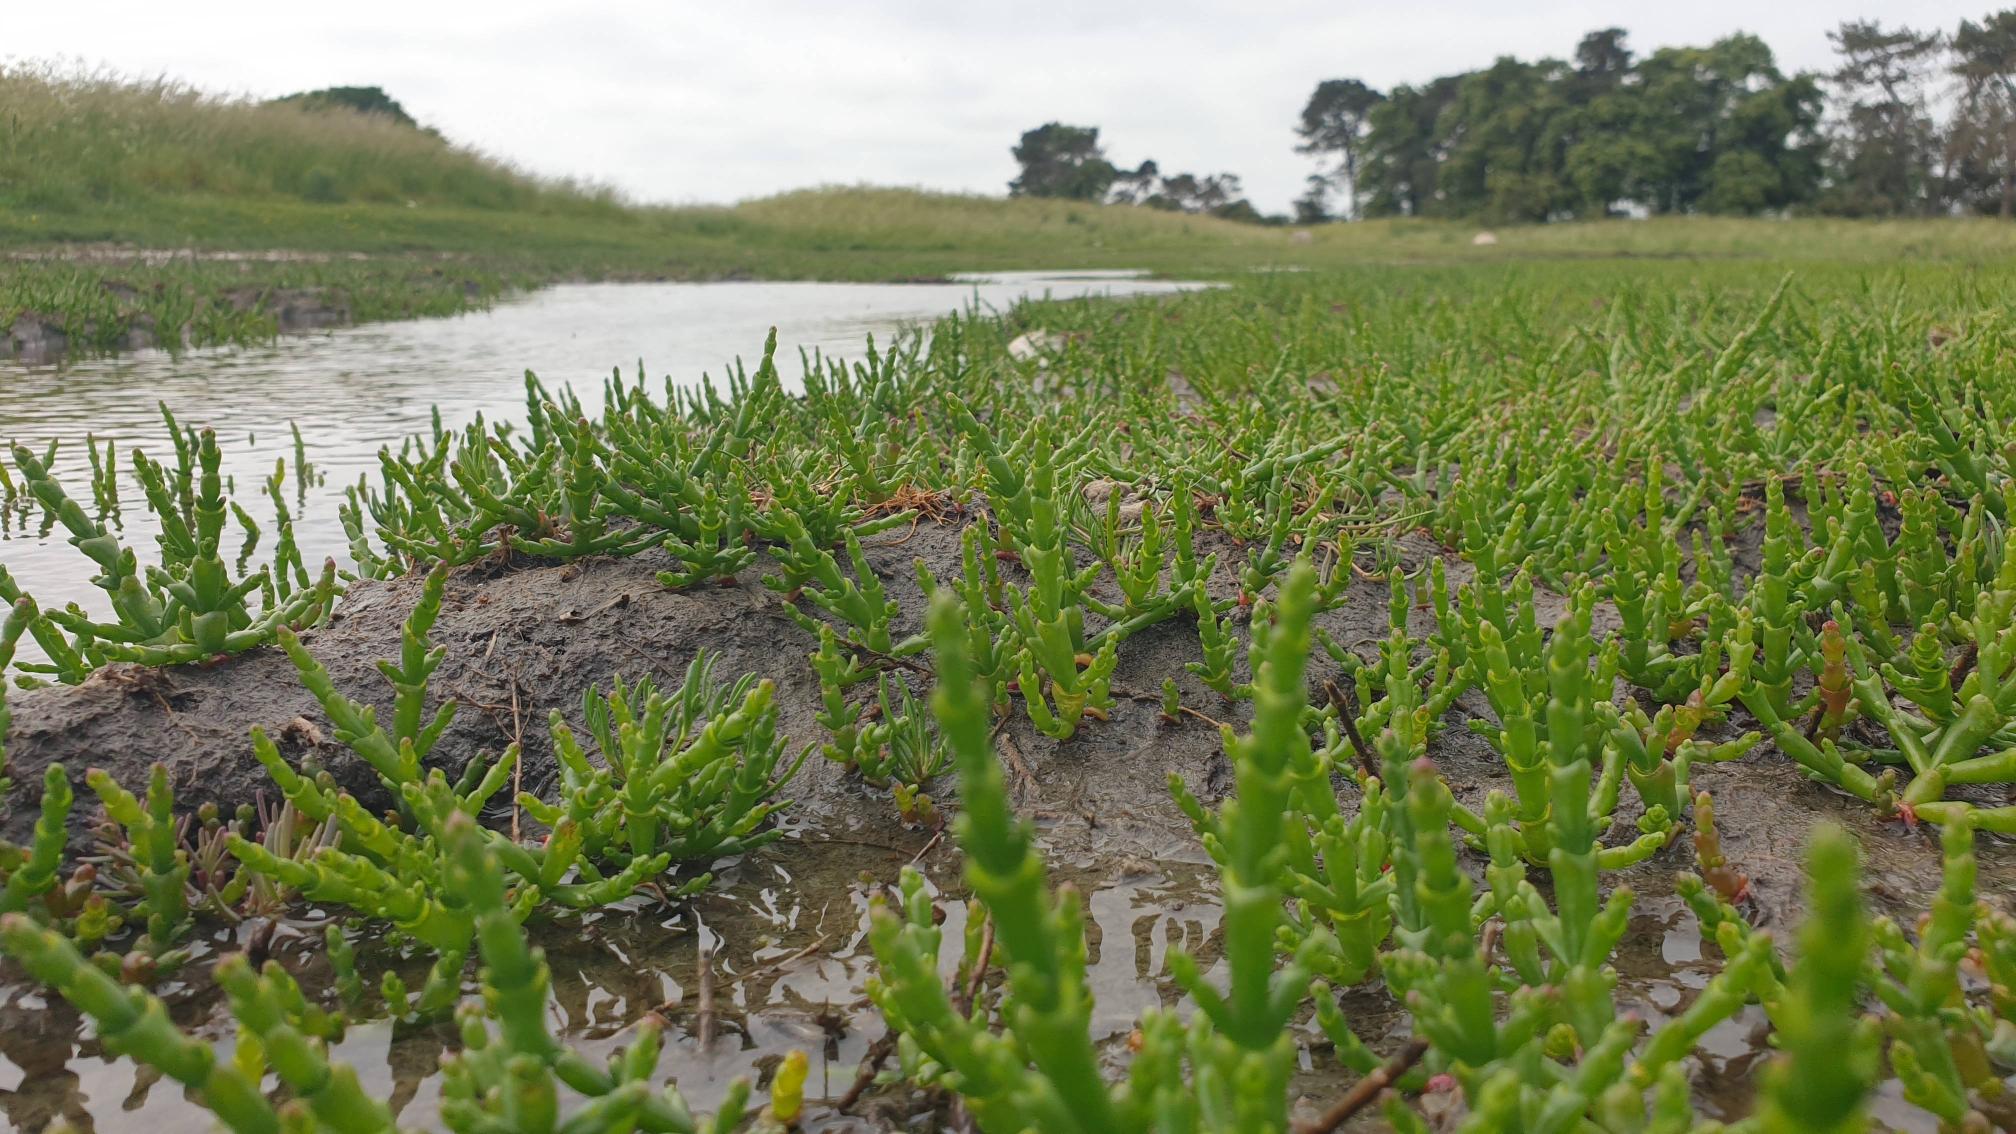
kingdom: Plantae
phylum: Tracheophyta
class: Magnoliopsida
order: Caryophyllales
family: Amaranthaceae
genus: Salicornia
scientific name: Salicornia europaea
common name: Almindelig salturt
